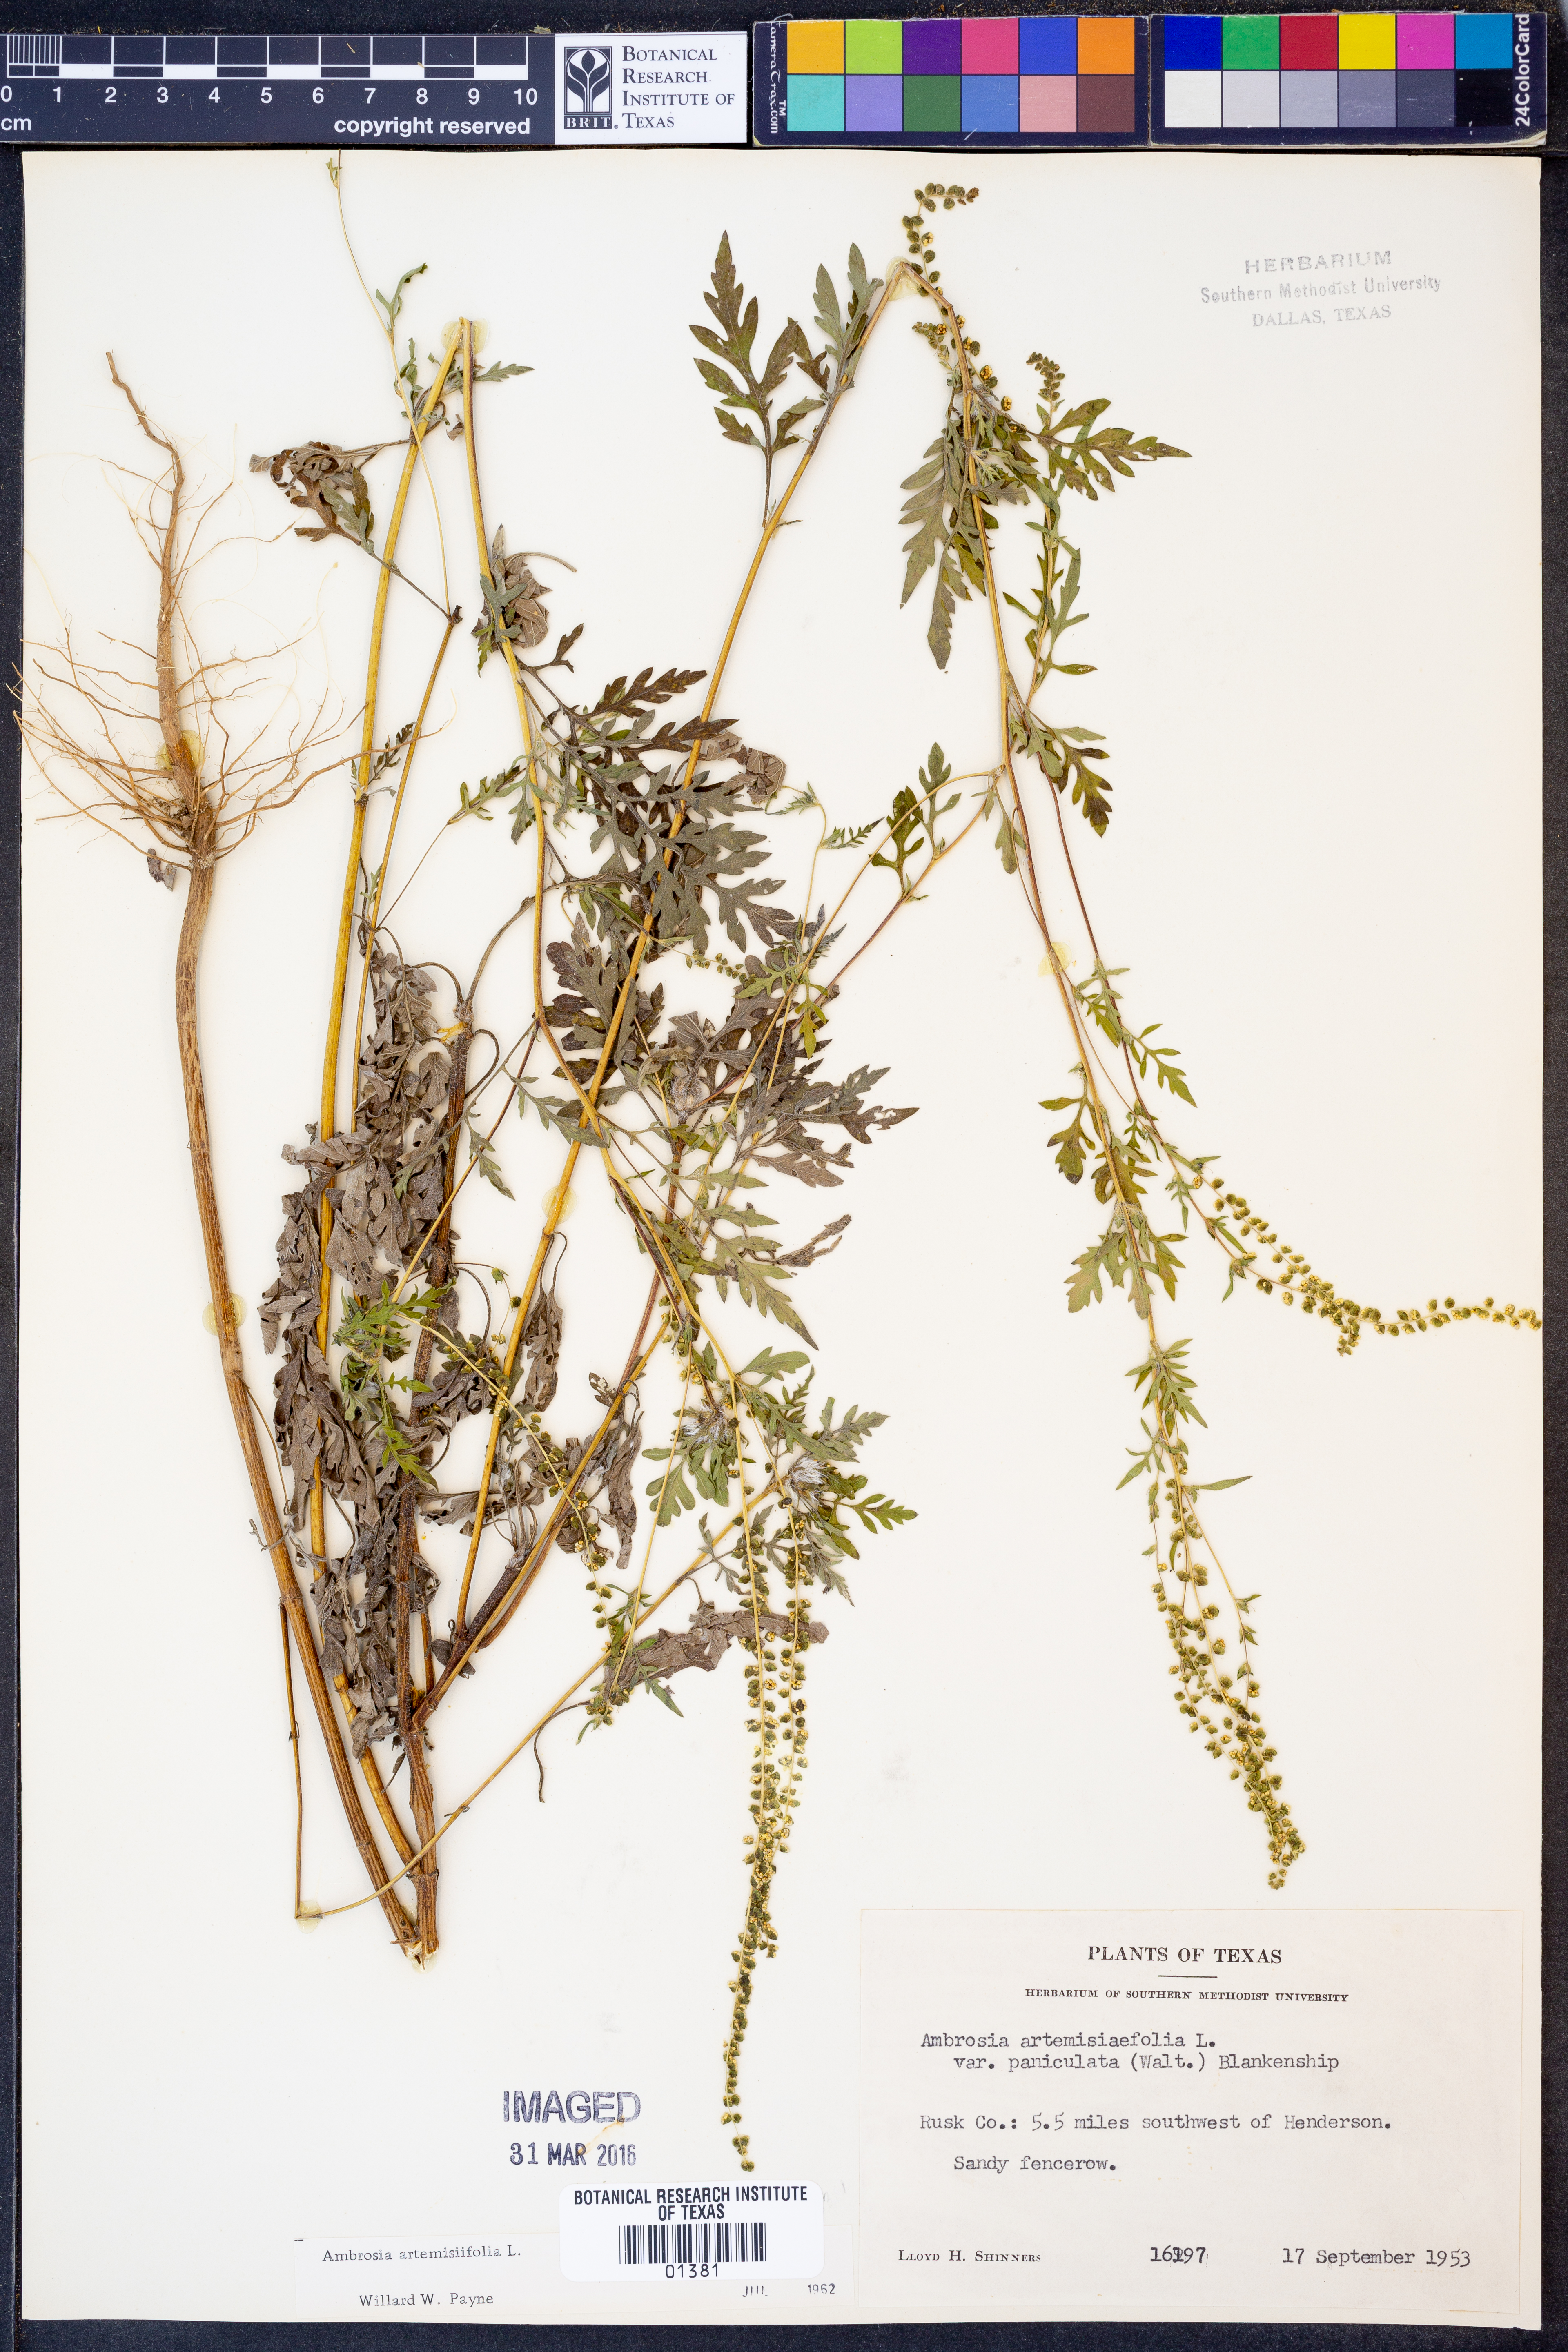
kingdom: Plantae
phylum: Tracheophyta
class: Magnoliopsida
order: Asterales
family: Asteraceae
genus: Ambrosia
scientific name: Ambrosia artemisiifolia
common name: Annual ragweed
